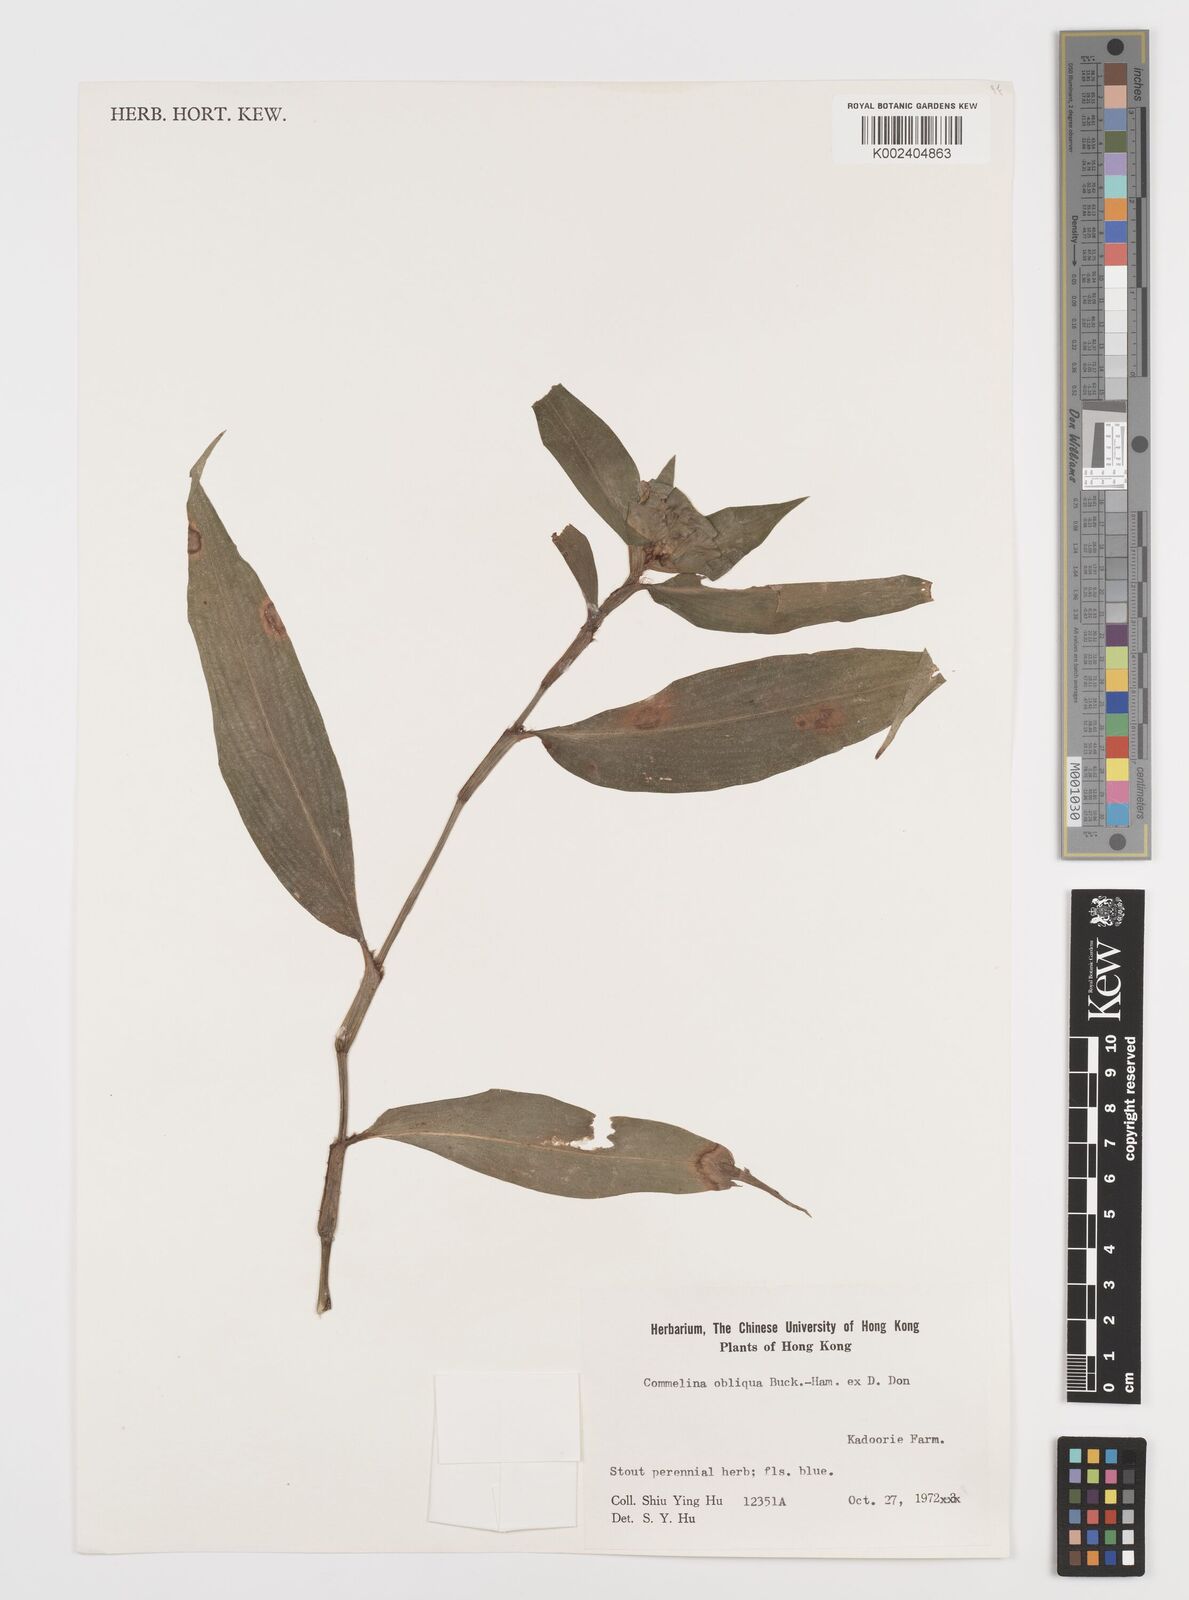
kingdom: Plantae
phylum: Tracheophyta
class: Liliopsida
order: Commelinales
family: Commelinaceae
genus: Commelina
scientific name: Commelina obliqua
